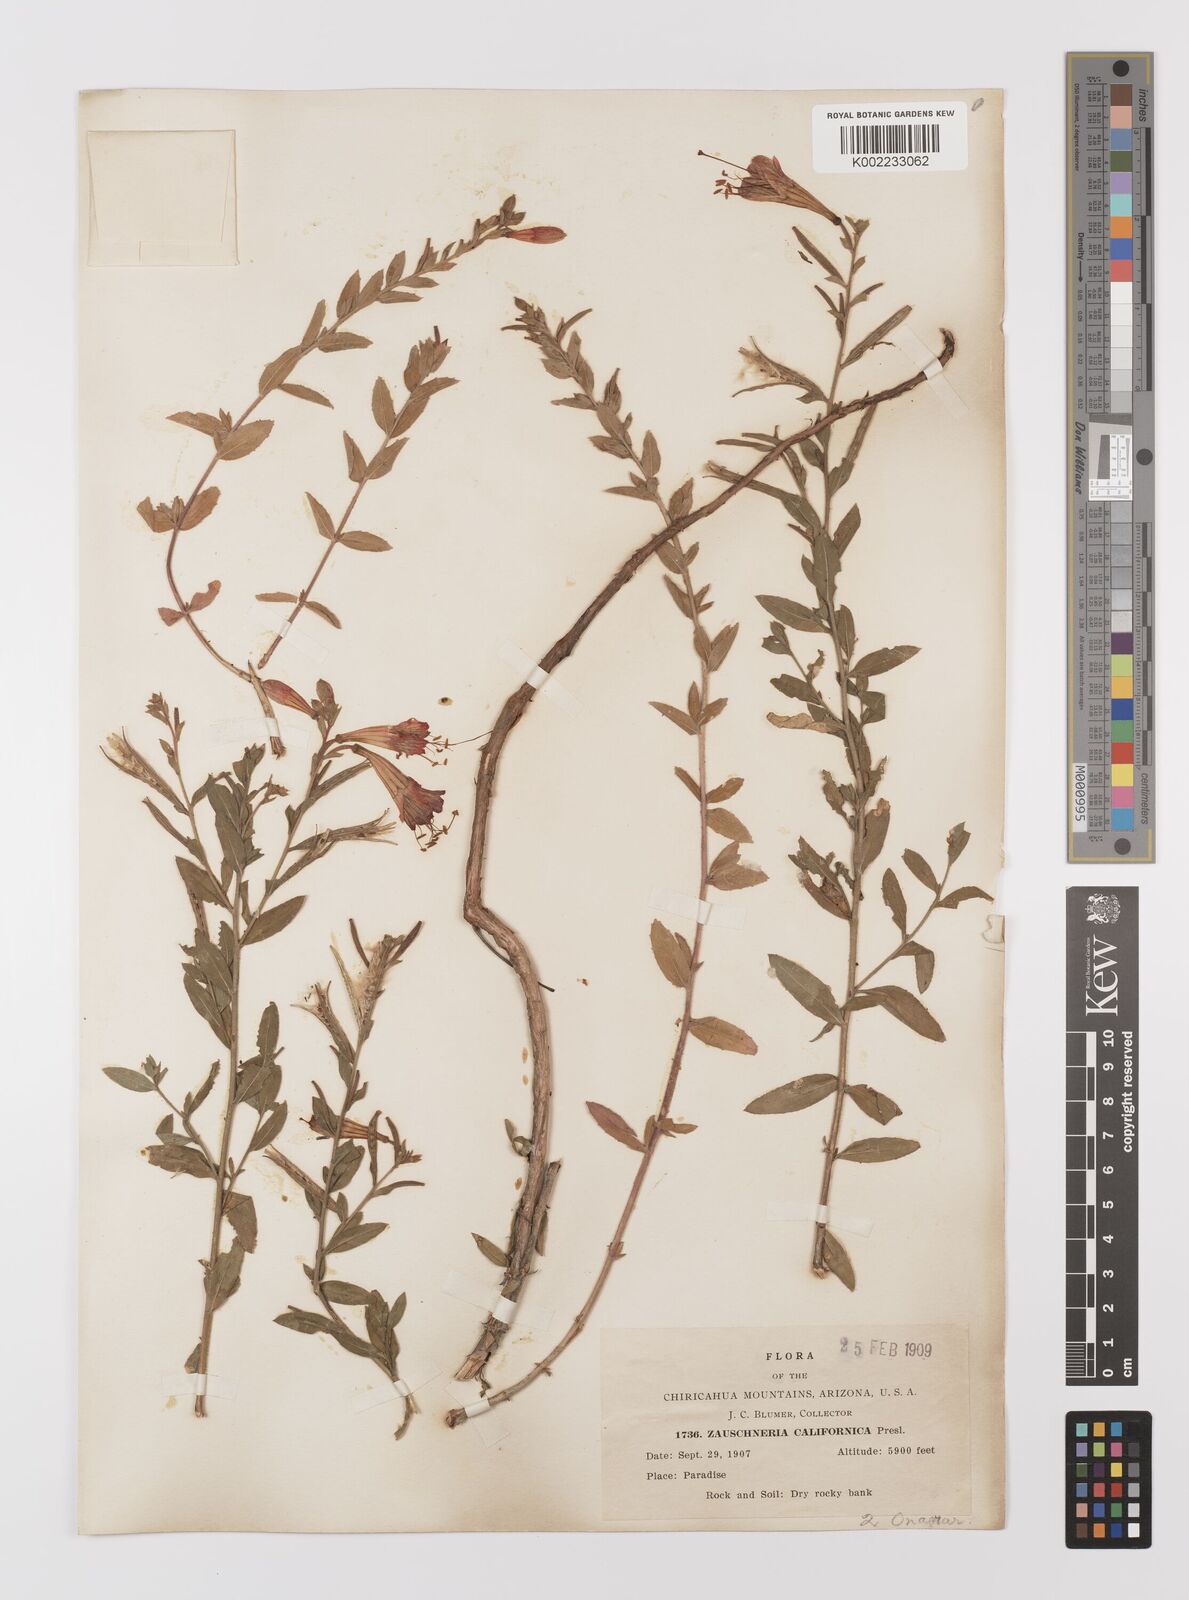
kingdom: Plantae
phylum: Tracheophyta
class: Magnoliopsida
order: Myrtales
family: Onagraceae
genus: Epilobium
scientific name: Epilobium
